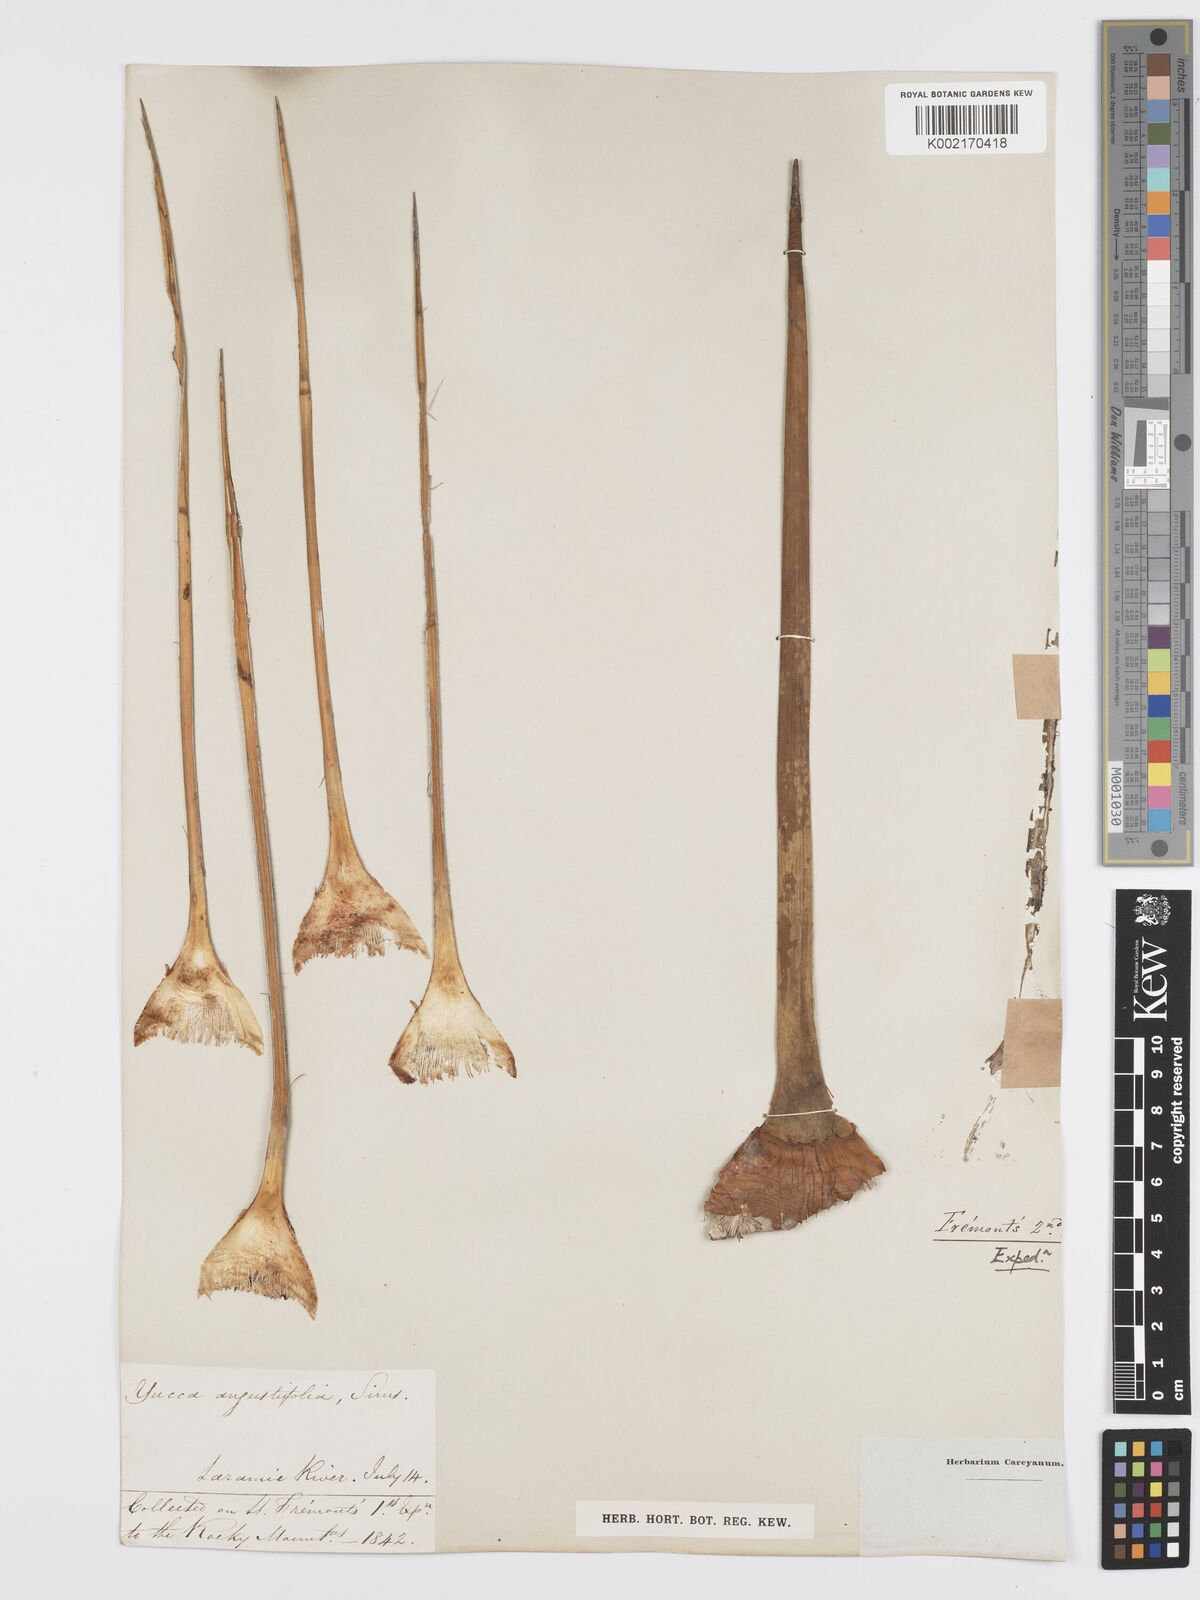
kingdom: Plantae
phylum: Tracheophyta
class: Liliopsida
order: Asparagales
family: Asparagaceae
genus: Yucca
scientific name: Yucca glauca
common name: Great plains yucca
